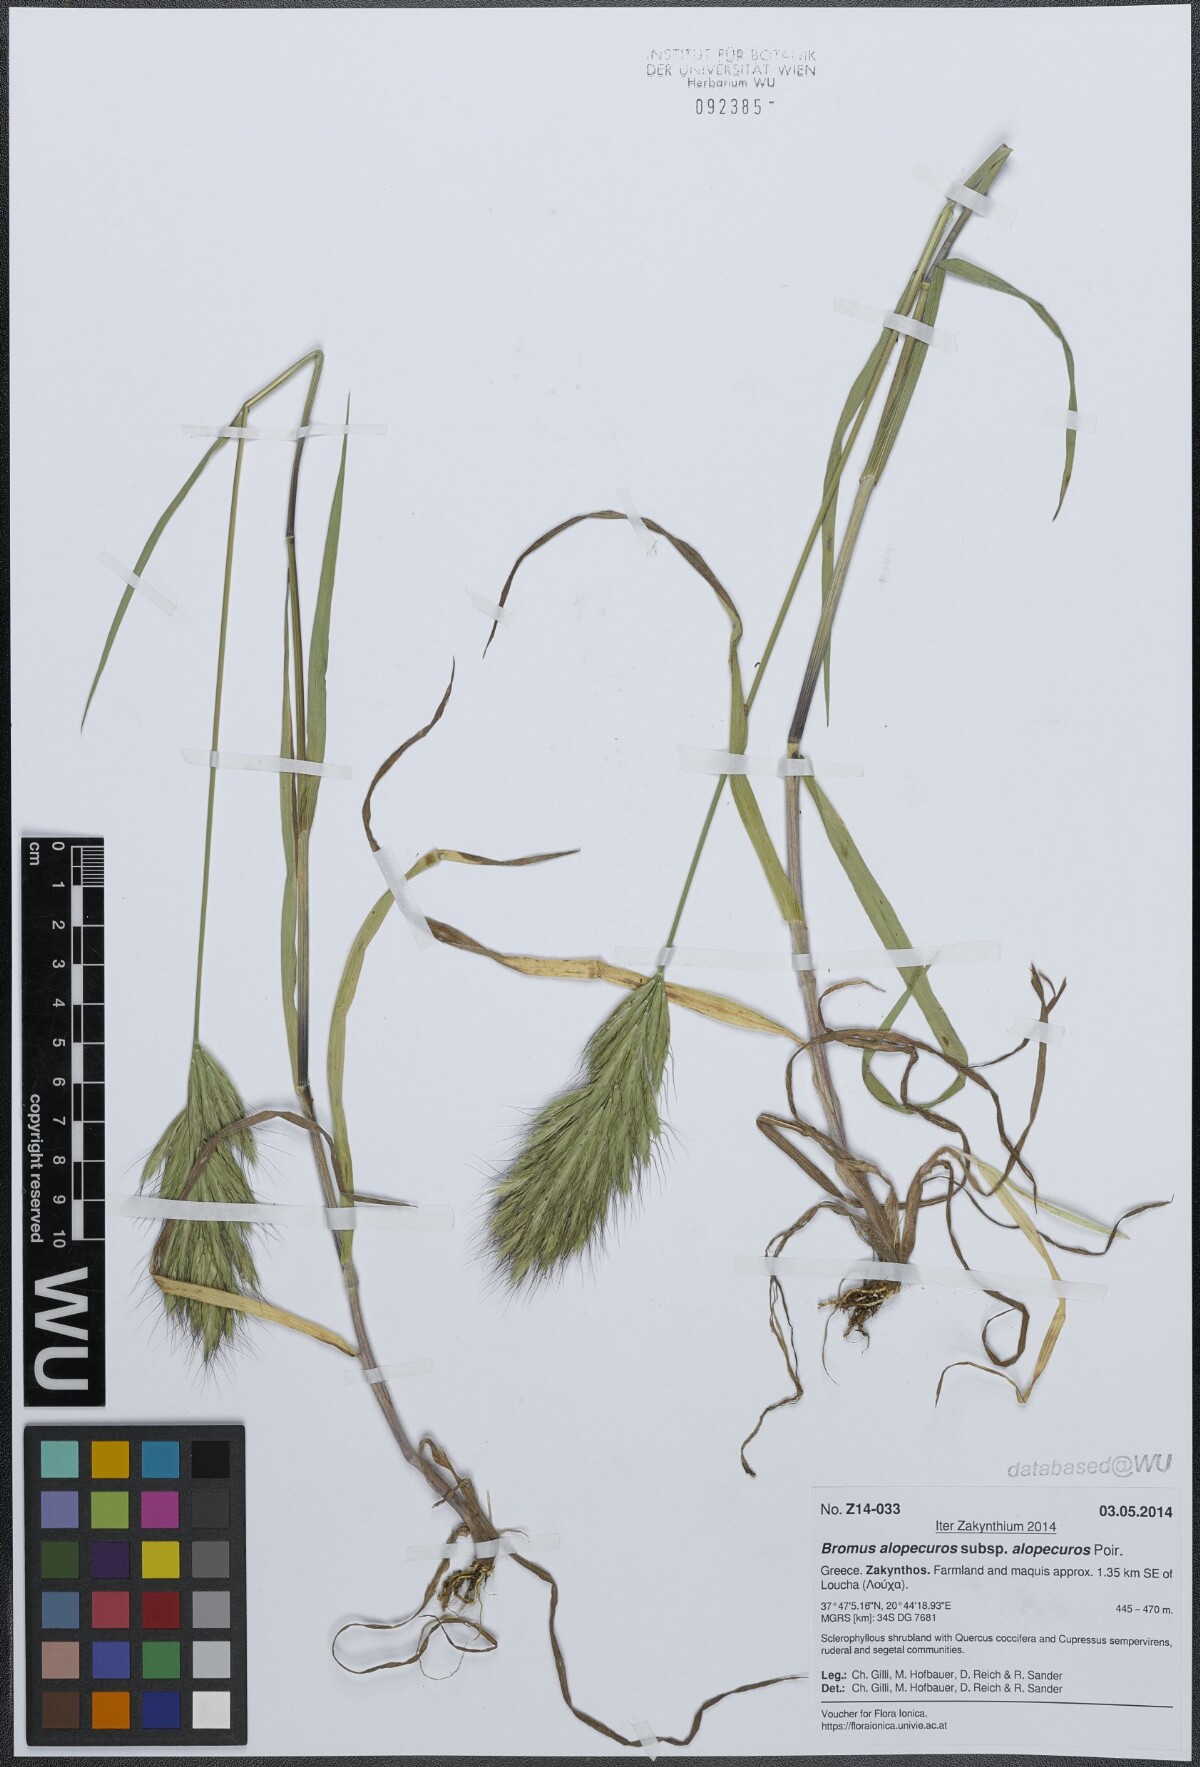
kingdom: Plantae
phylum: Tracheophyta
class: Liliopsida
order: Poales
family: Poaceae
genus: Bromus
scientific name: Bromus alopecuros
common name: Weedy brome
